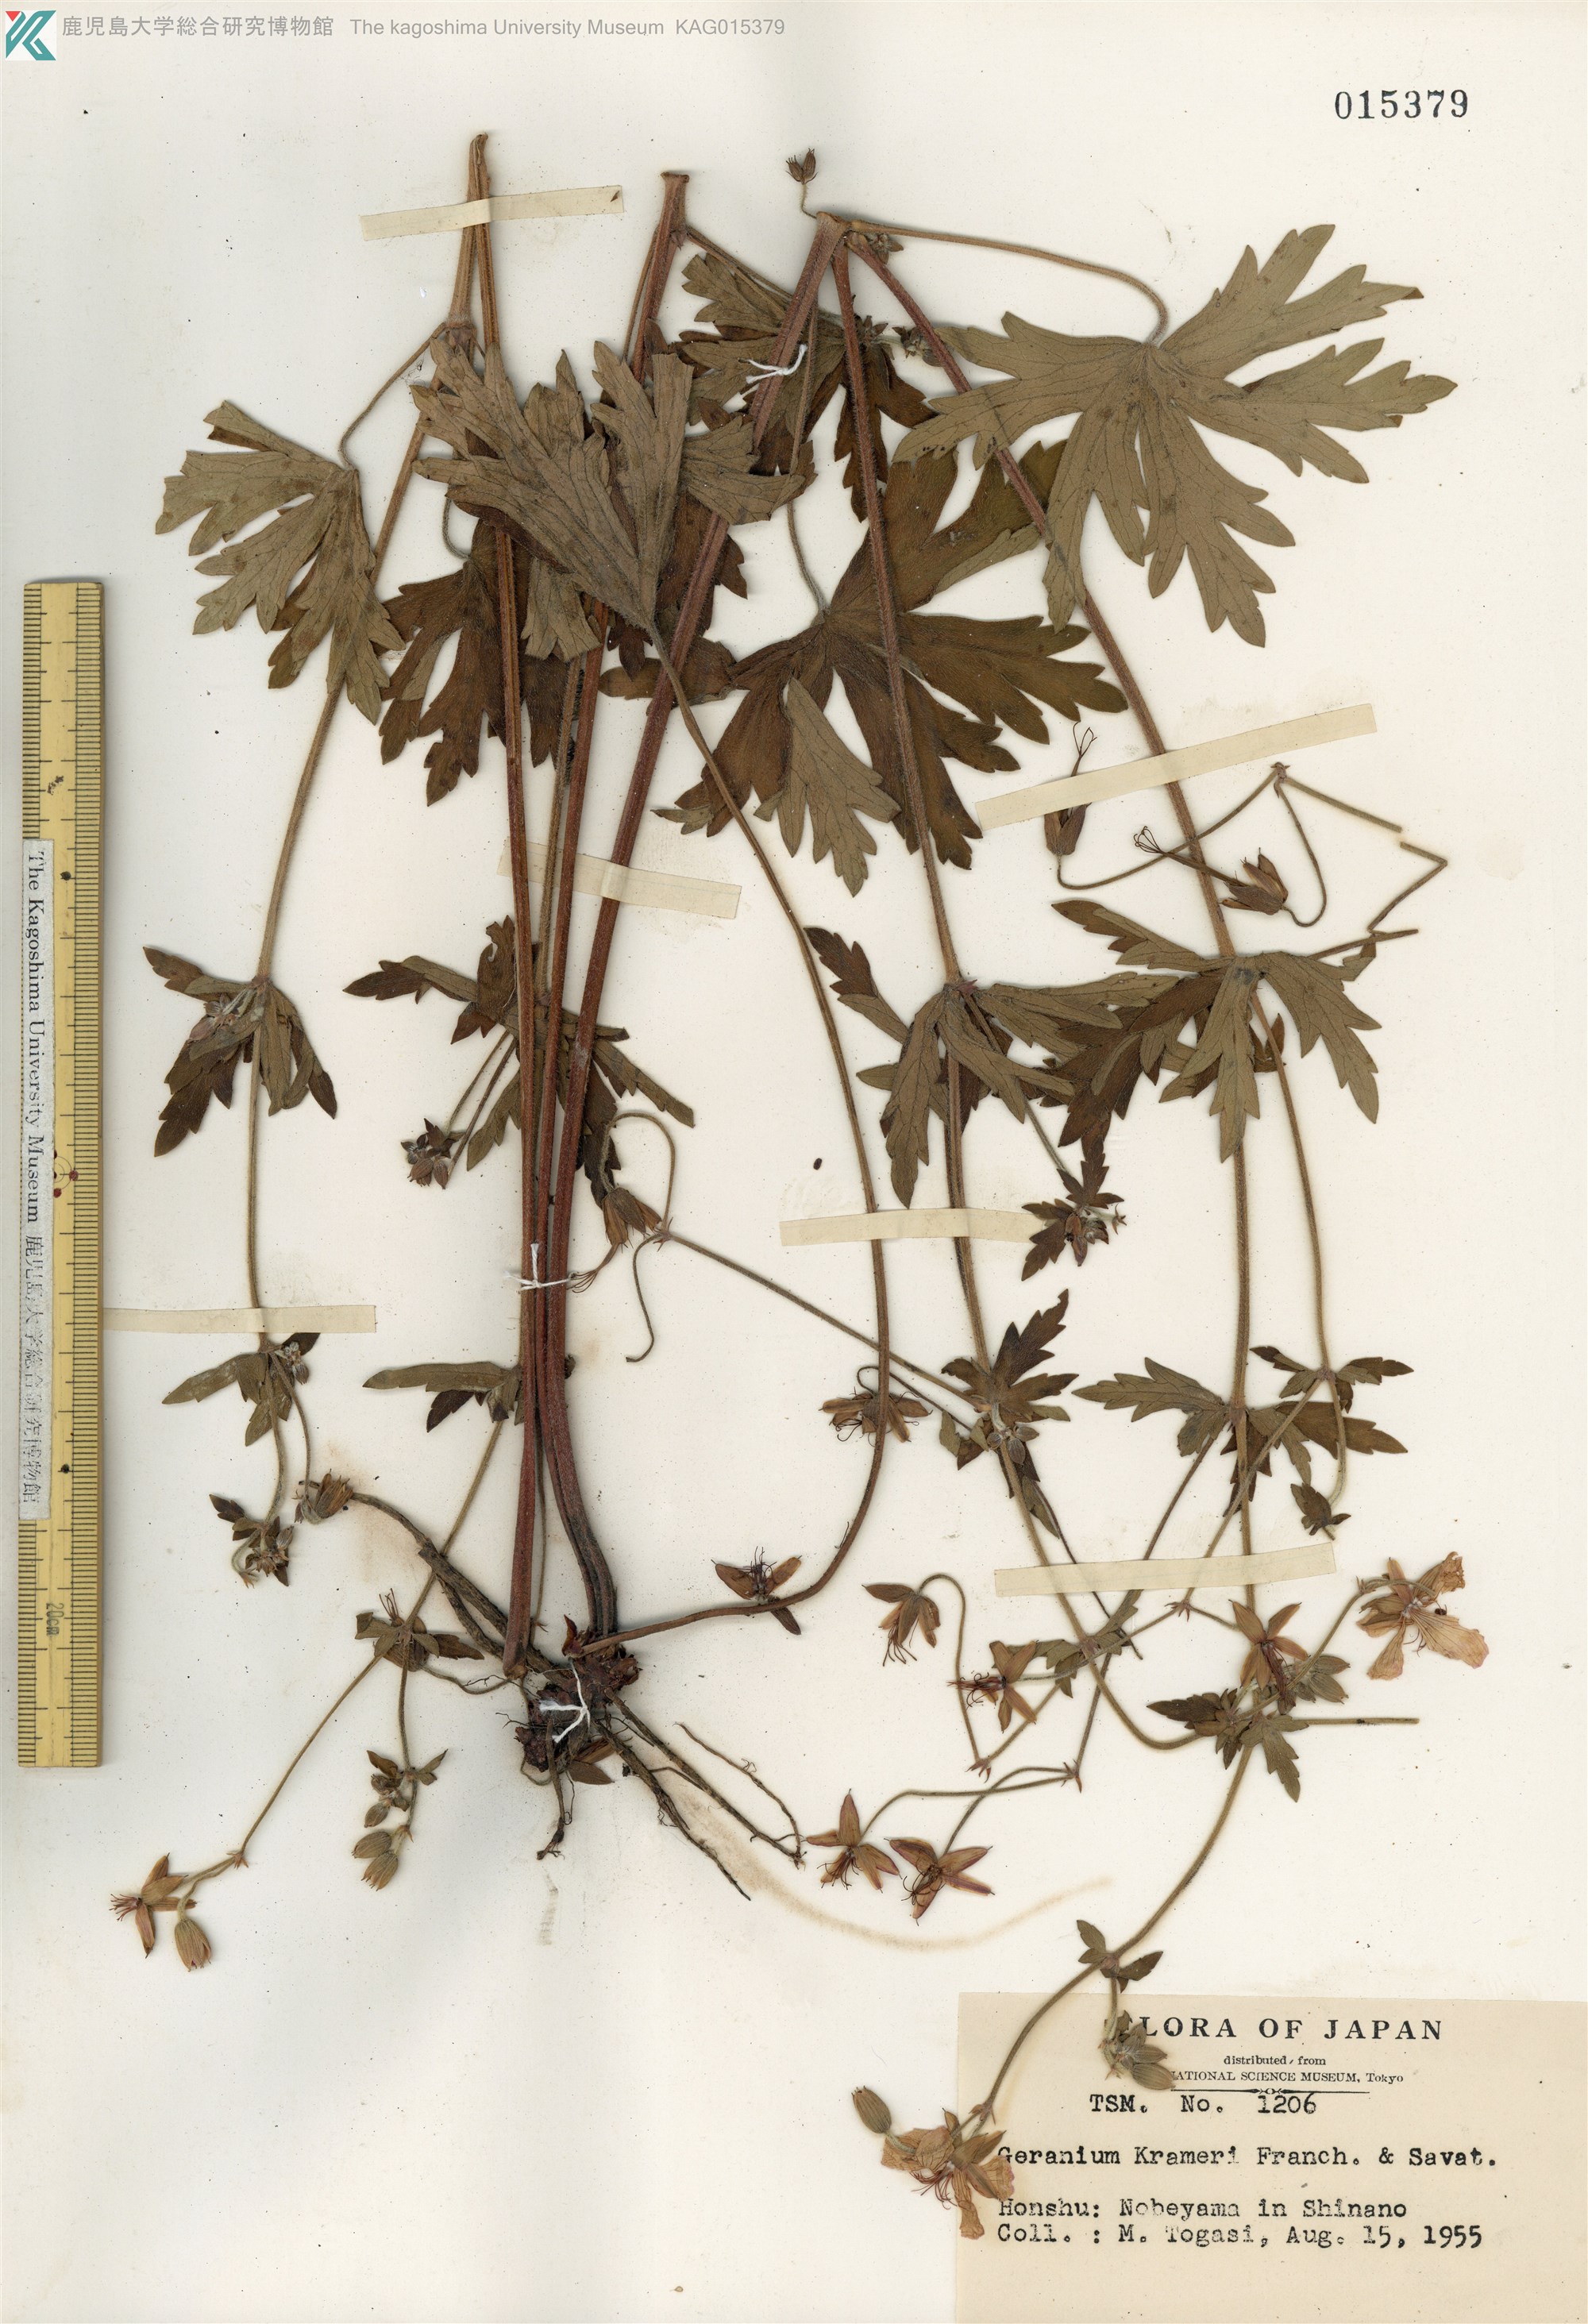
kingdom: Plantae
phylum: Tracheophyta
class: Magnoliopsida
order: Geraniales
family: Geraniaceae
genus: Geranium
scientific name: Geranium krameri
